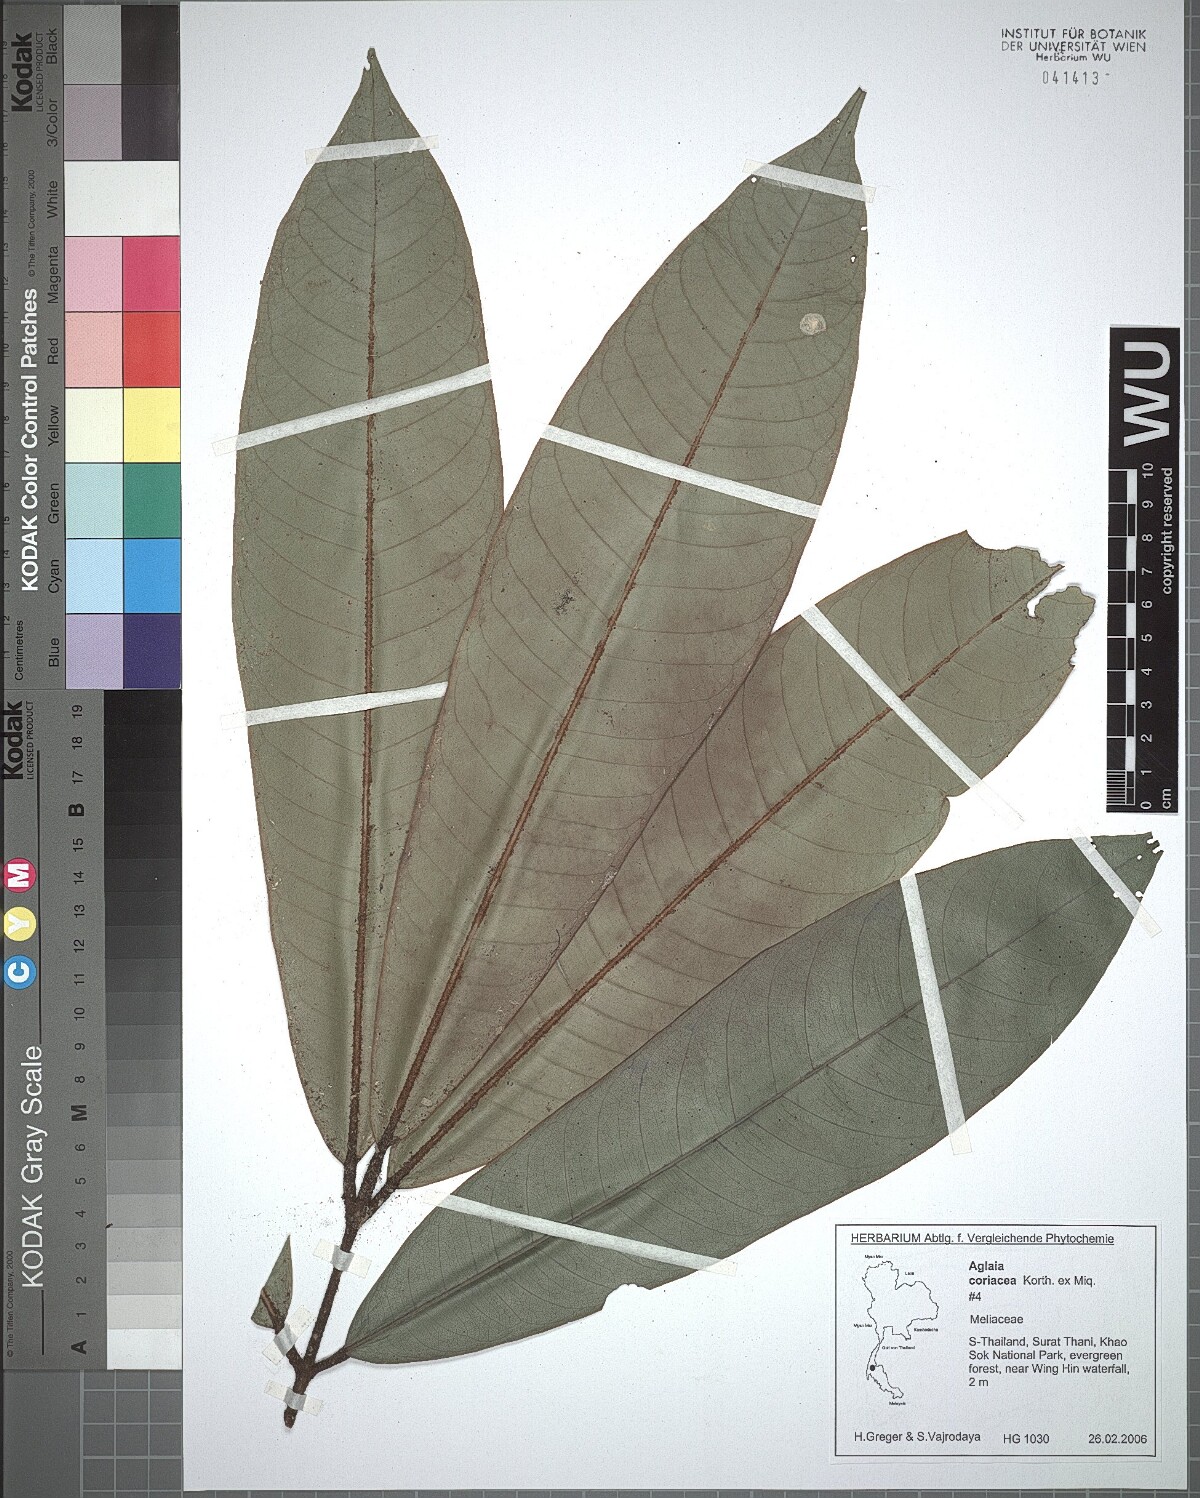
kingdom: Plantae
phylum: Tracheophyta
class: Magnoliopsida
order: Sapindales
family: Meliaceae
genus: Aglaia
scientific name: Aglaia coriacea
